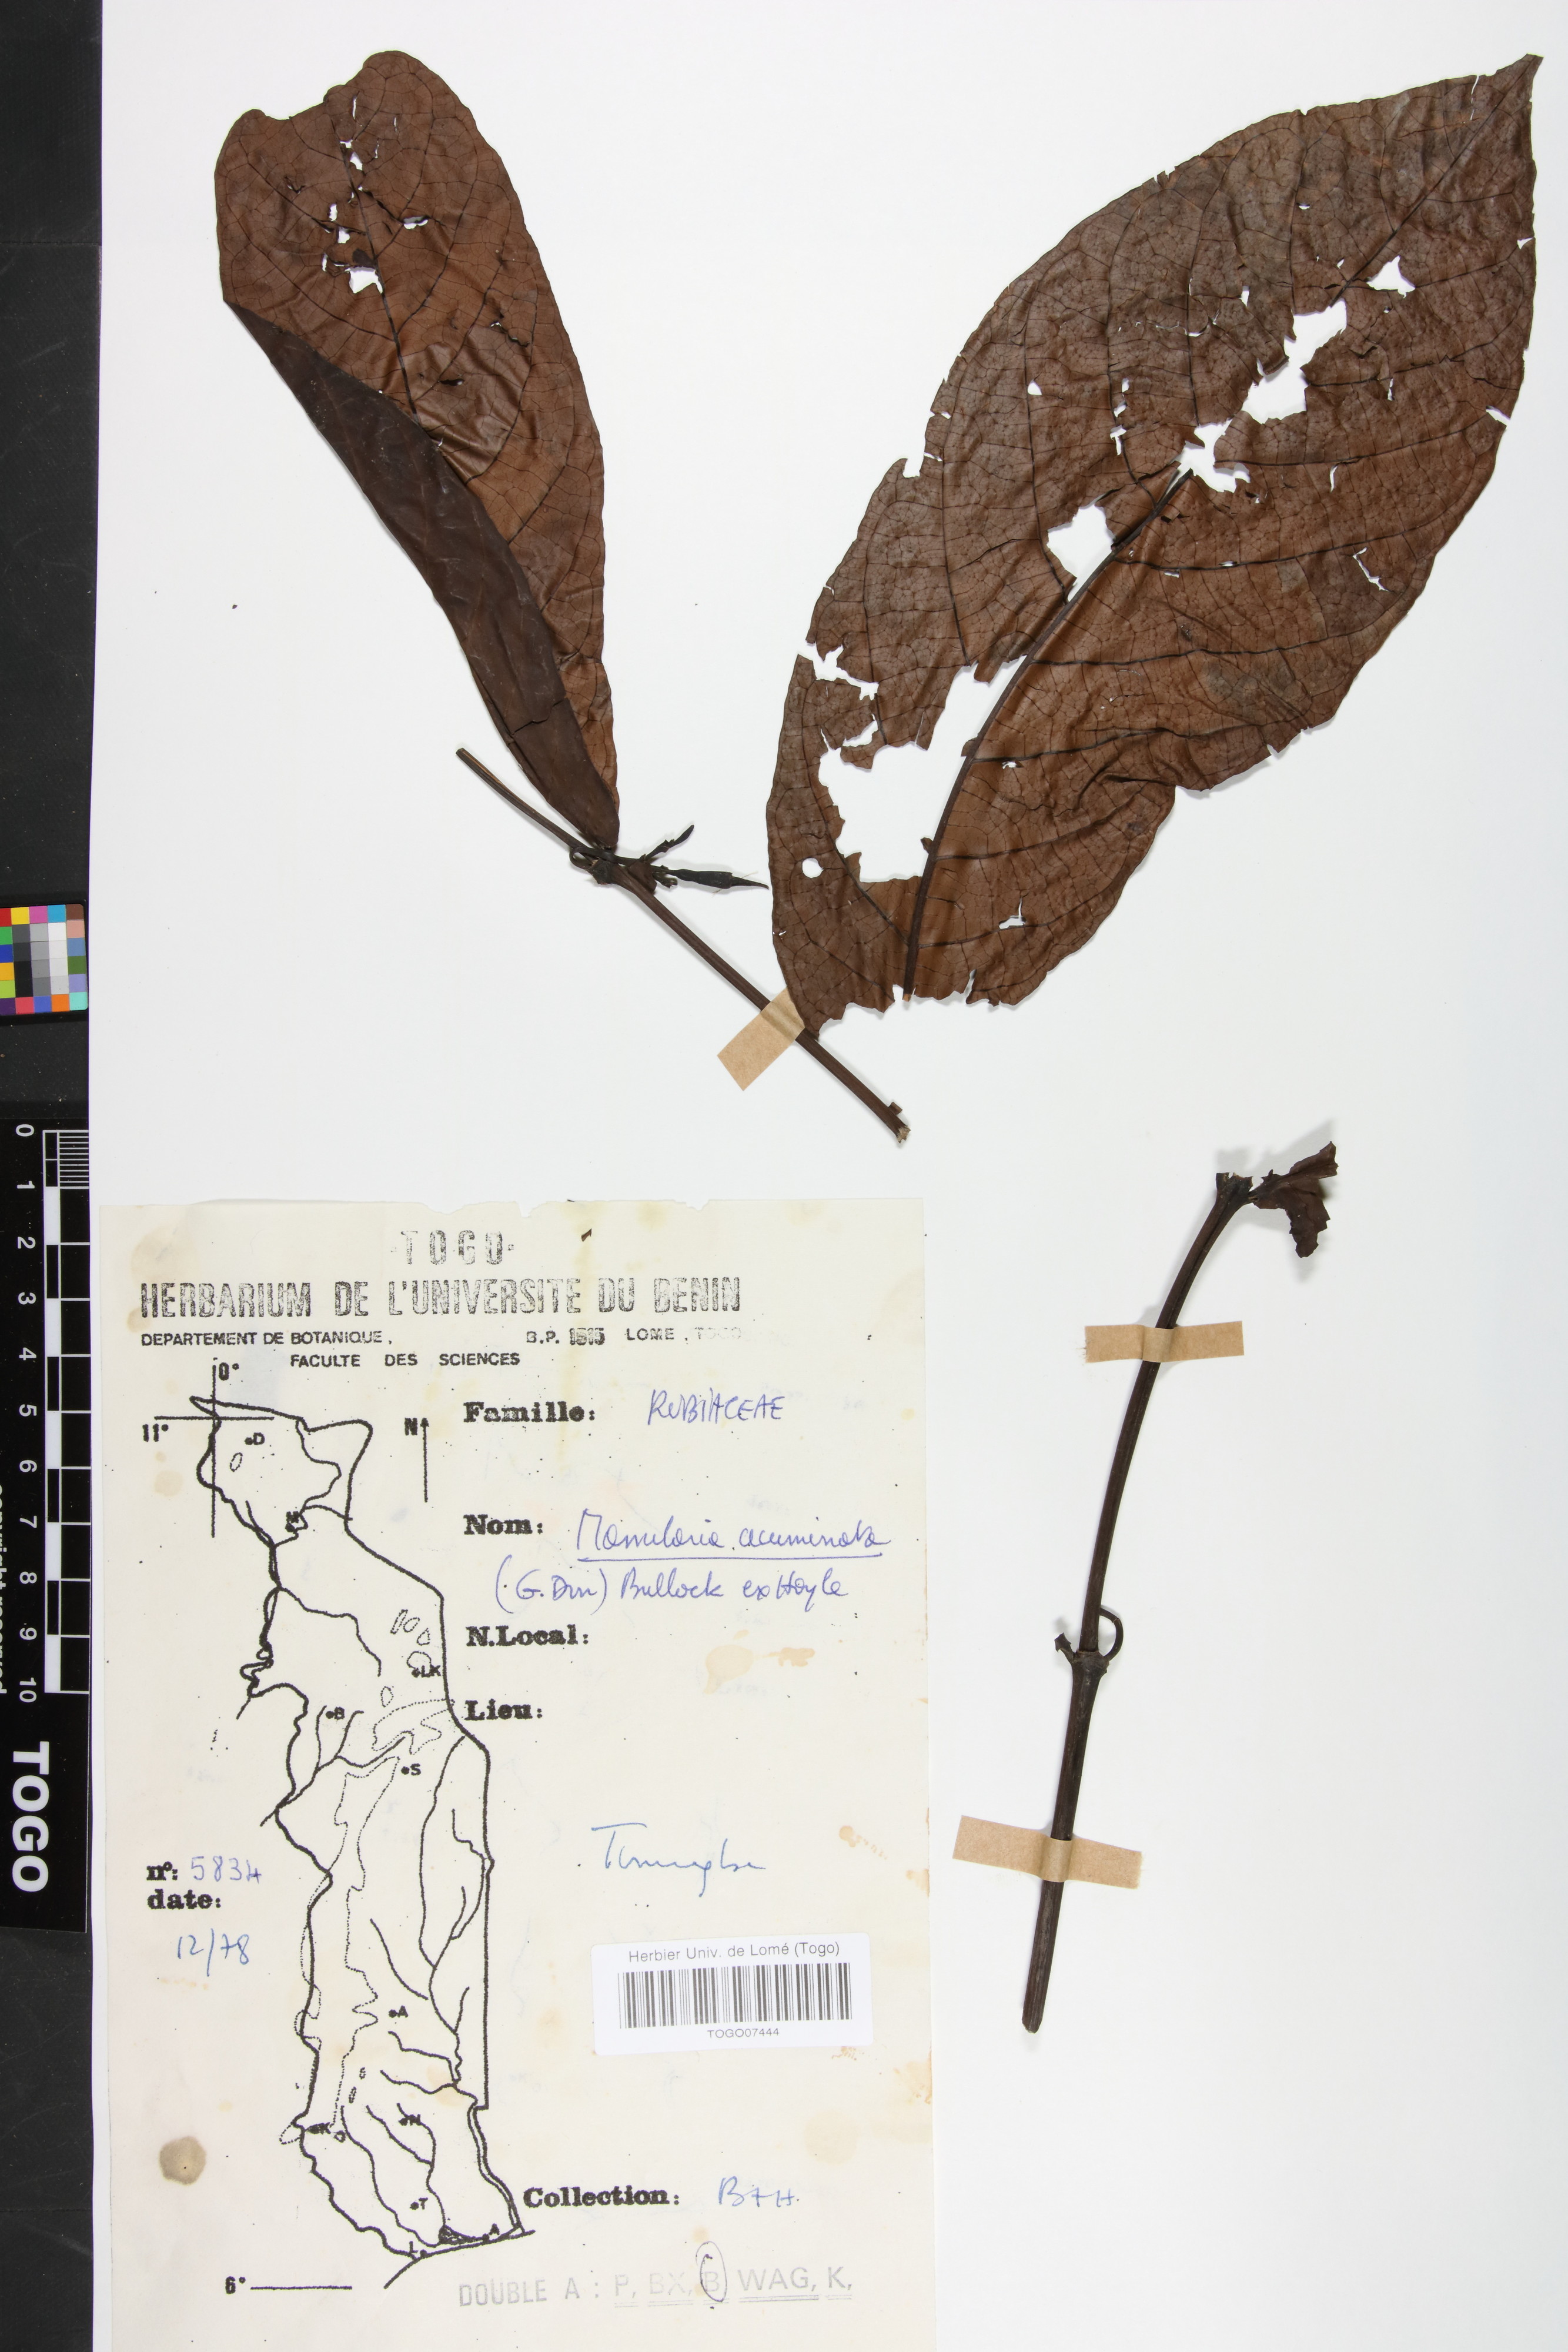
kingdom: Plantae
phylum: Tracheophyta
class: Magnoliopsida
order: Gentianales
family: Rubiaceae
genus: Massularia
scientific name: Massularia acuminata
